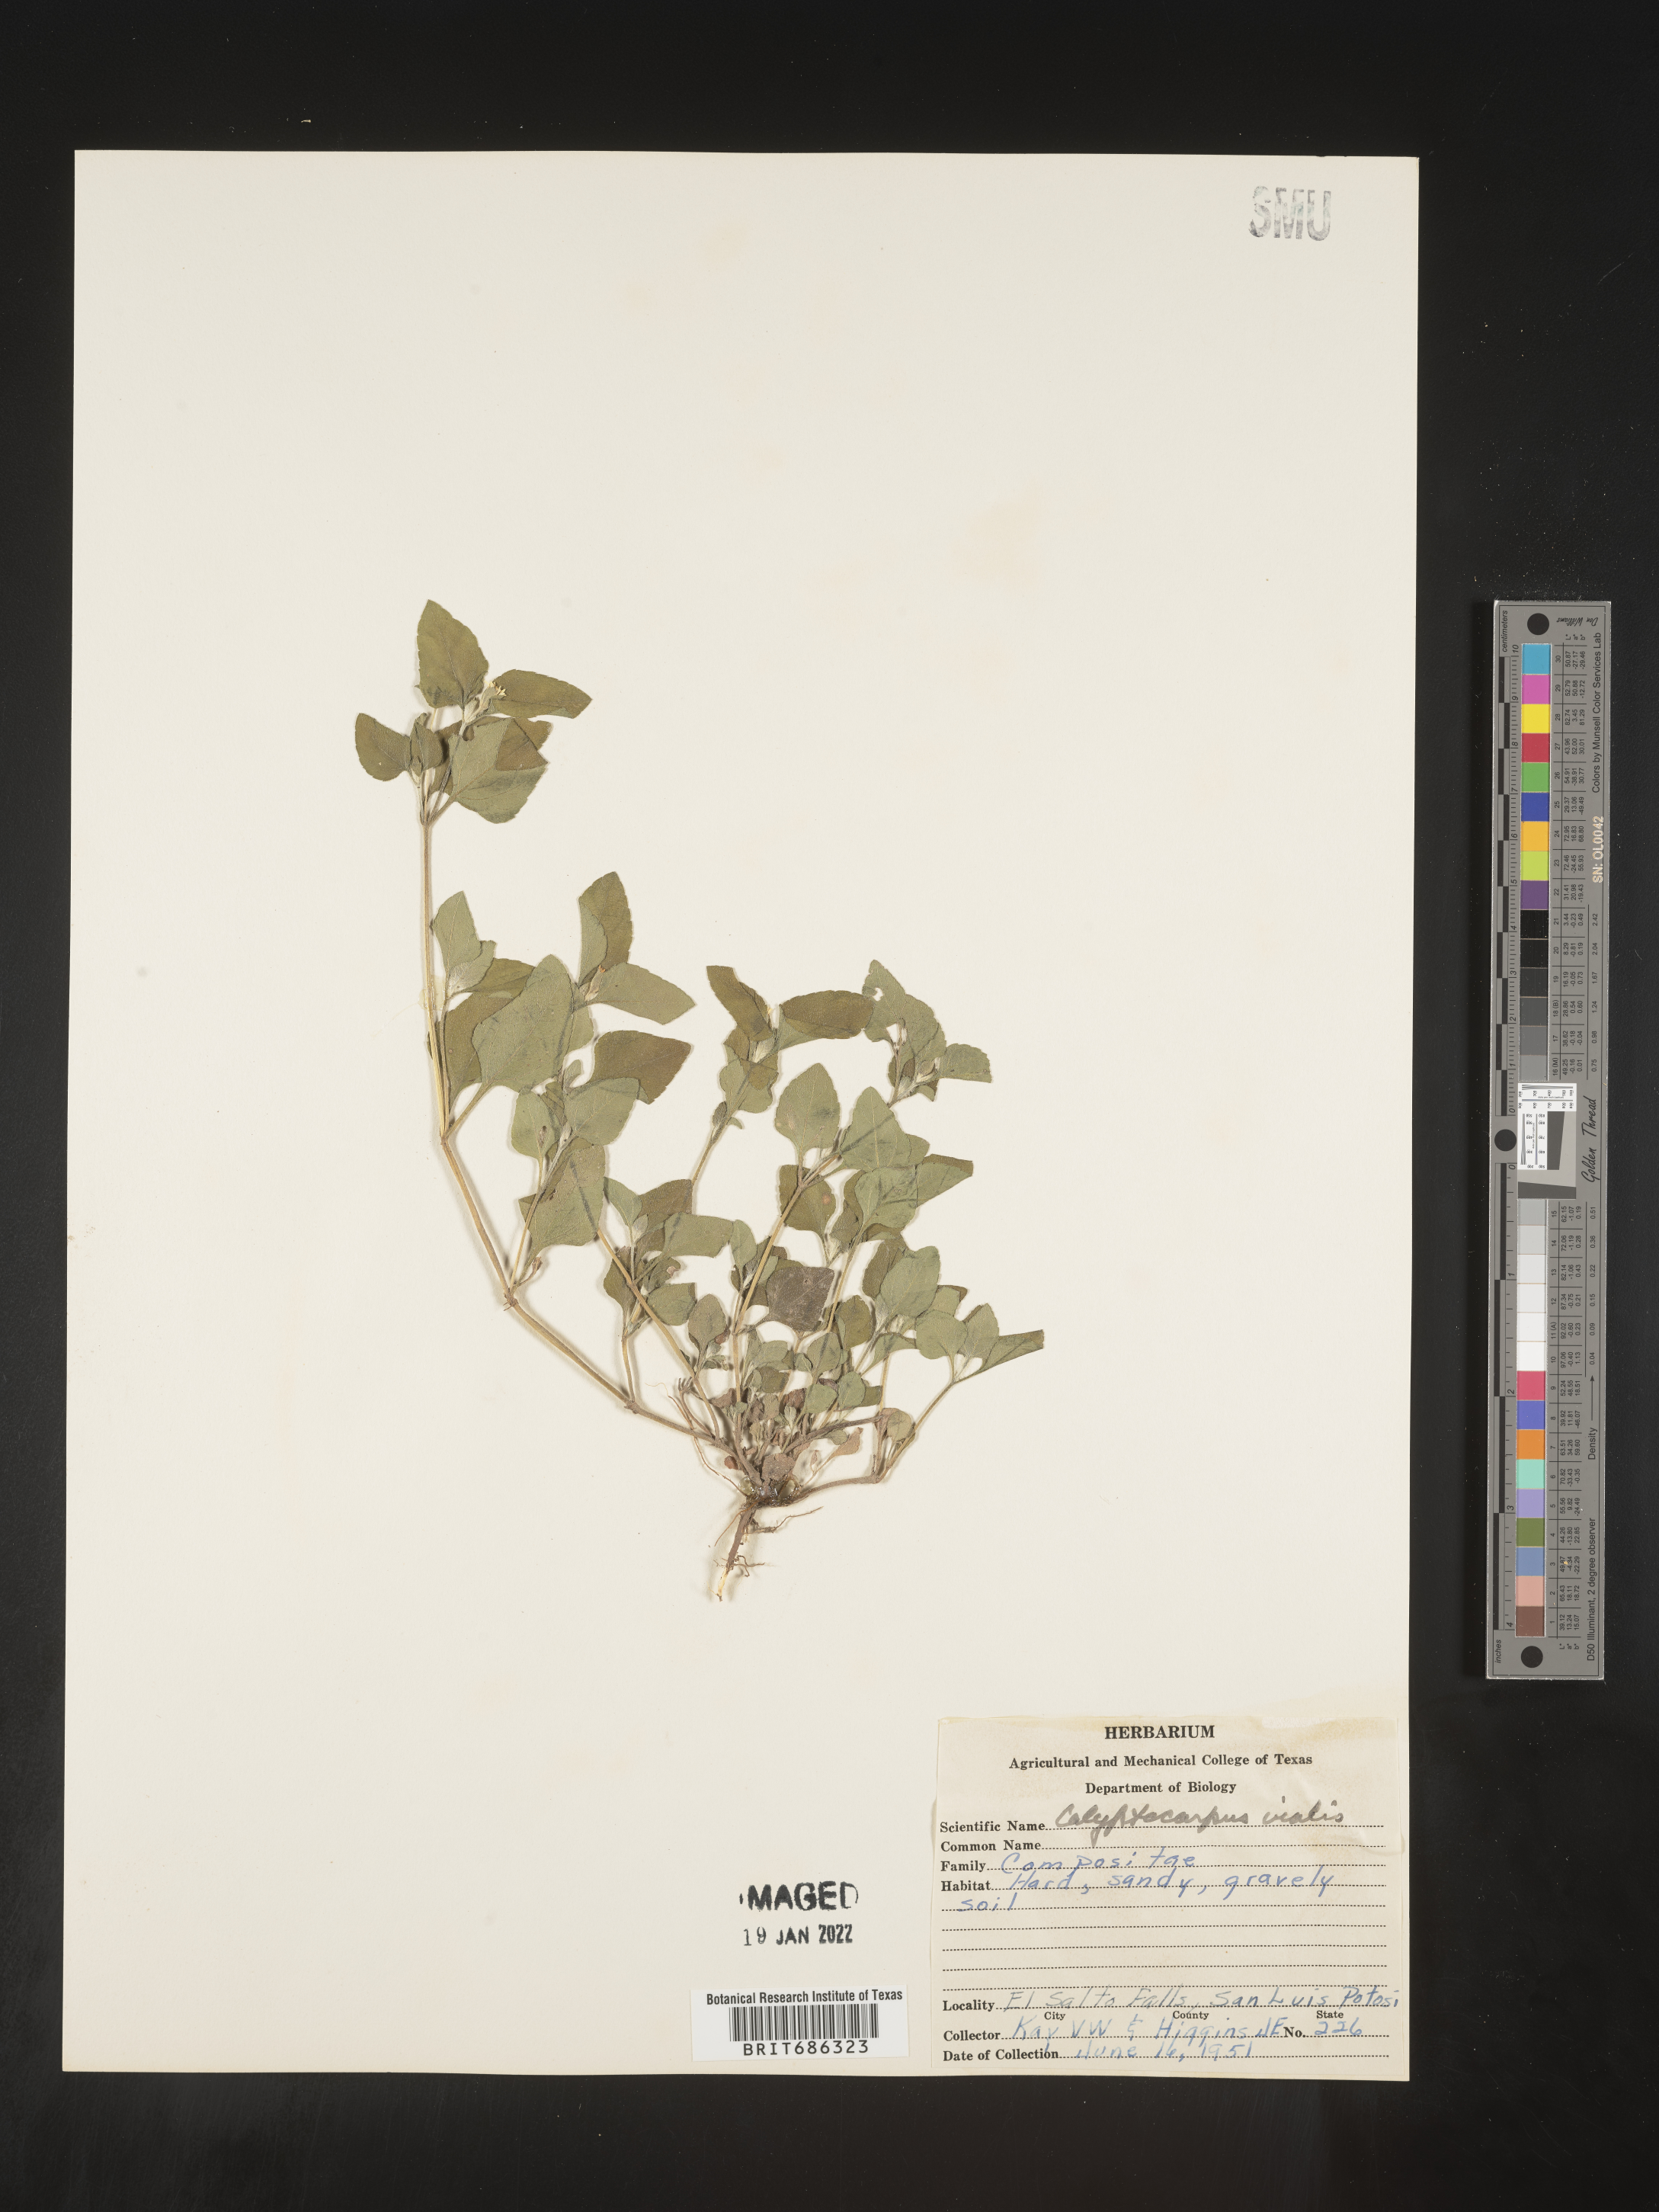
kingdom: Plantae
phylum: Tracheophyta
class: Magnoliopsida
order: Asterales
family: Asteraceae
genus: Calyptocarpus
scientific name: Calyptocarpus
